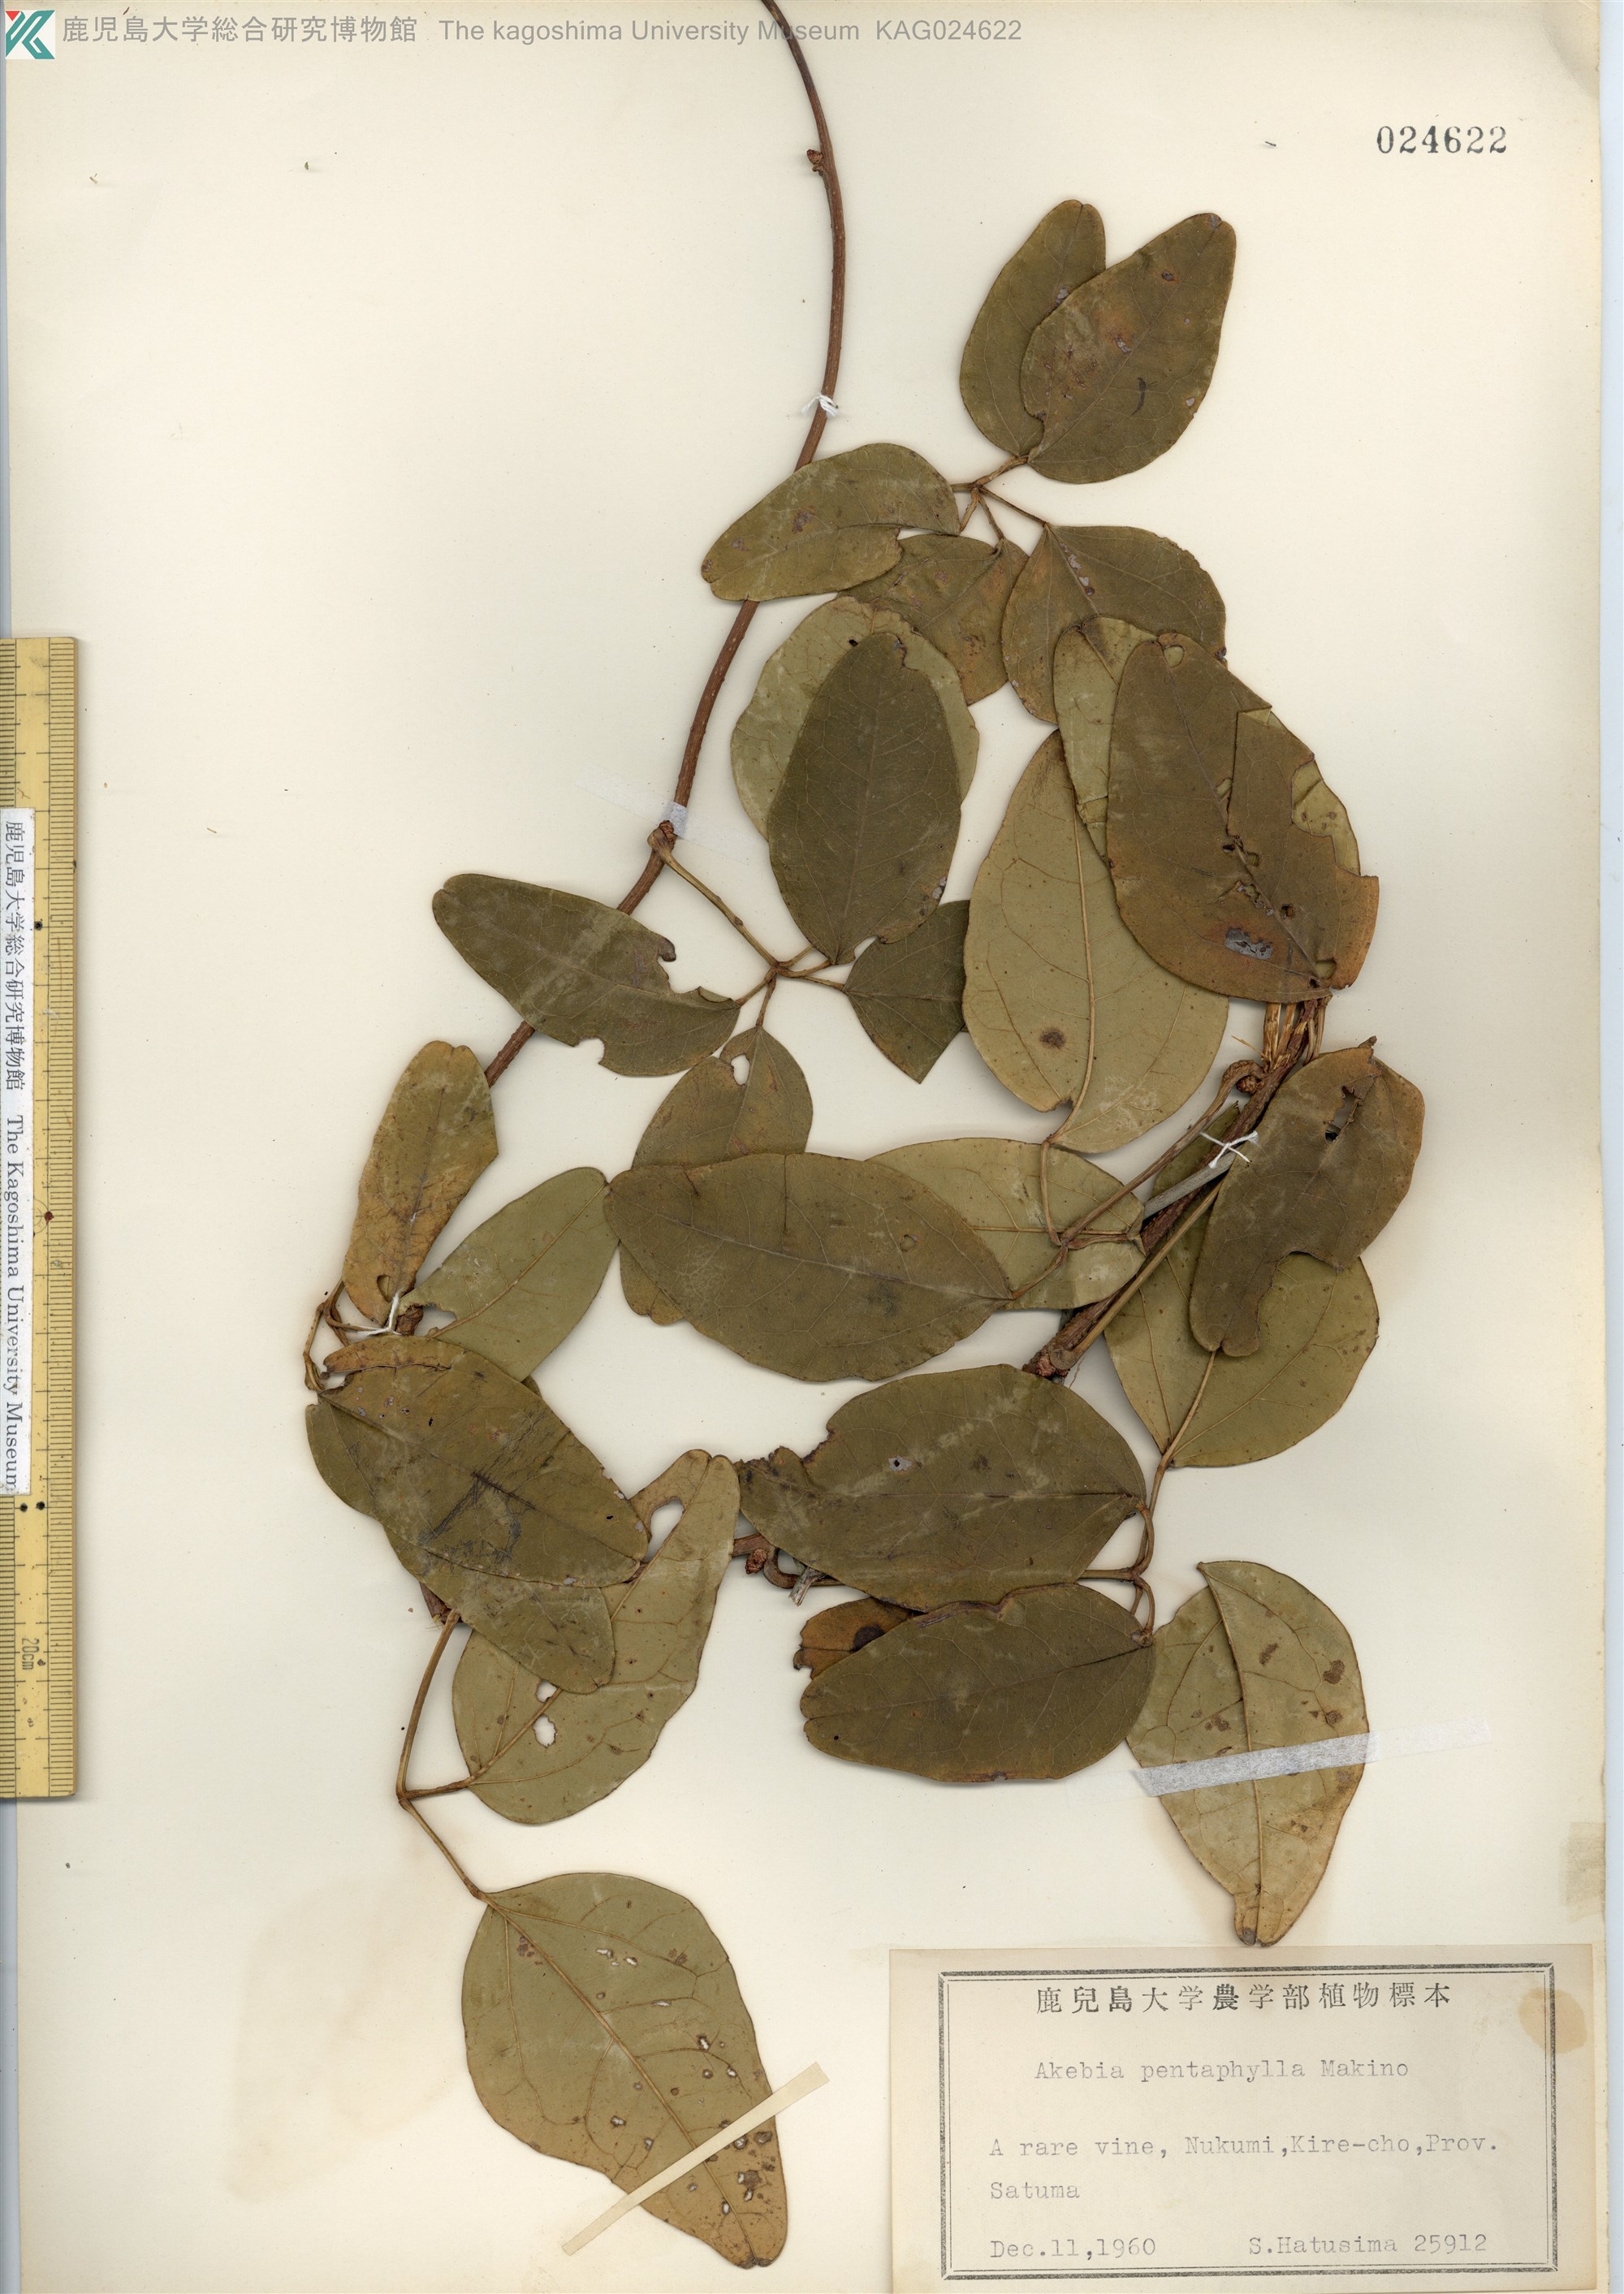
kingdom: Plantae
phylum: Tracheophyta
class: Magnoliopsida
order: Ranunculales
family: Lardizabalaceae
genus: Akebia
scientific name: Akebia pentaphylla
